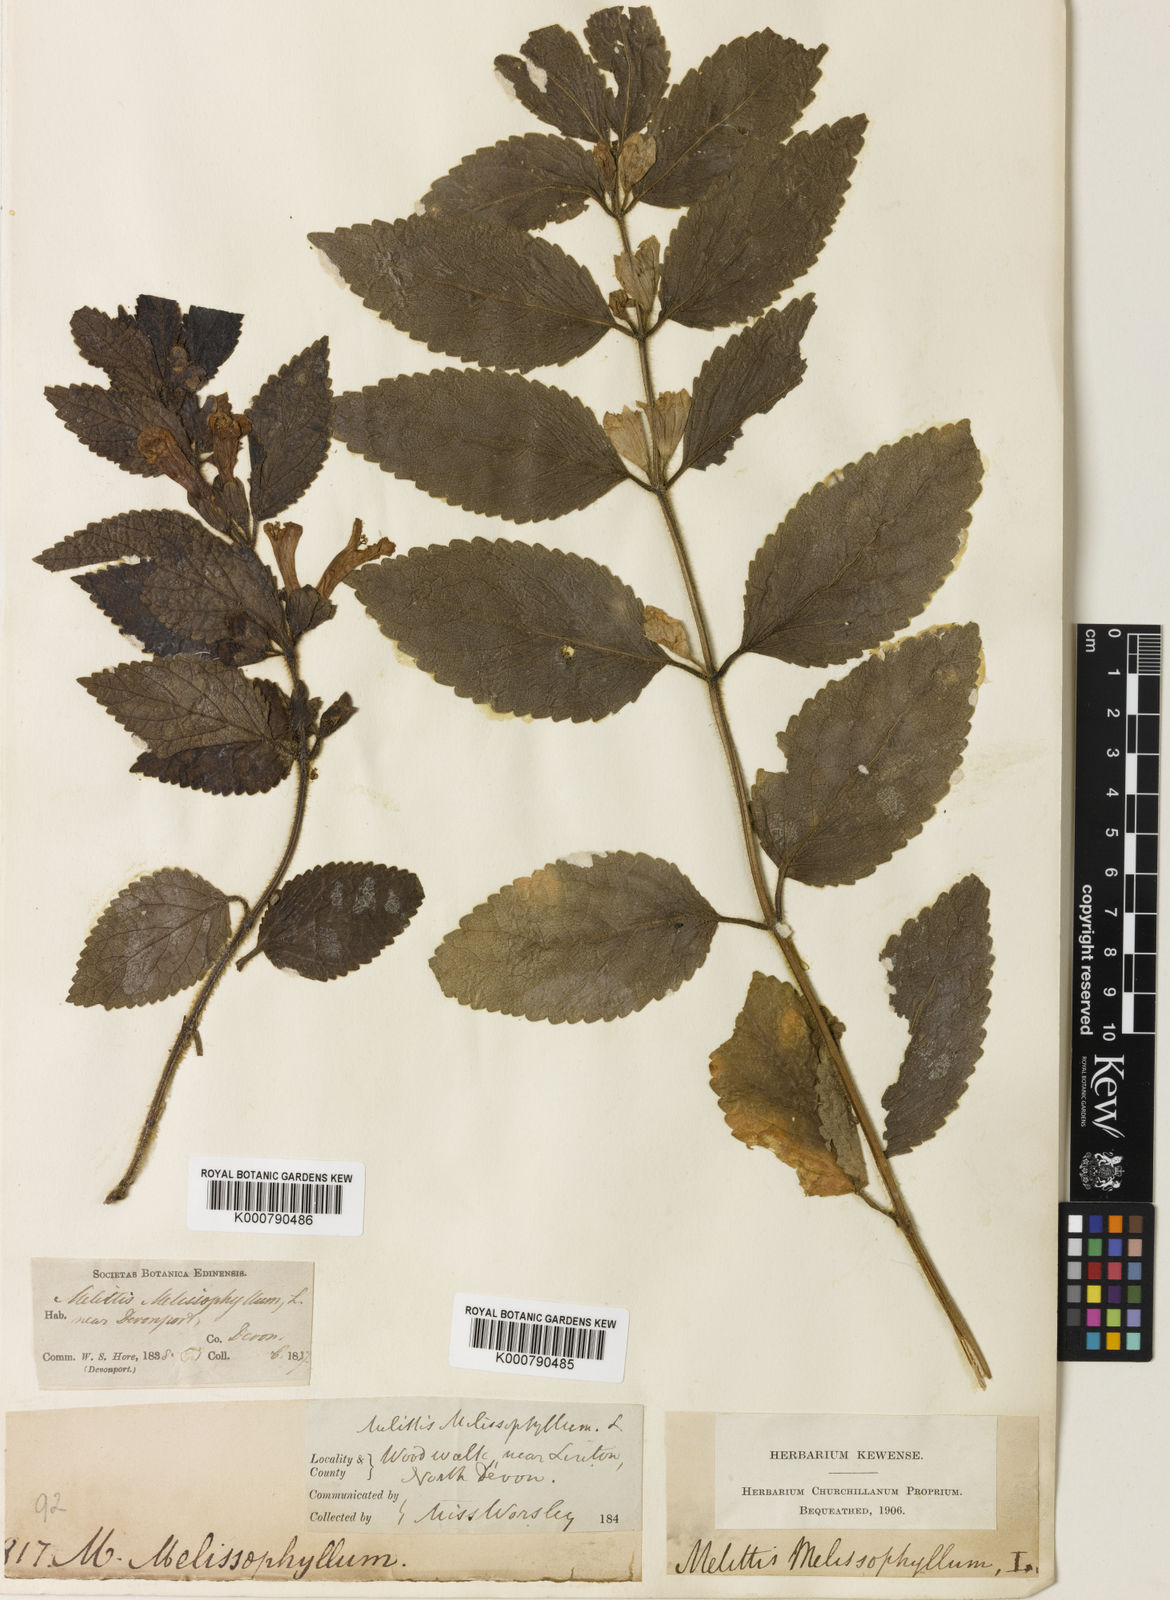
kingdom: Plantae
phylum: Tracheophyta
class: Magnoliopsida
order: Lamiales
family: Lamiaceae
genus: Melittis
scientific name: Melittis melissophyllum
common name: Bastard balm
